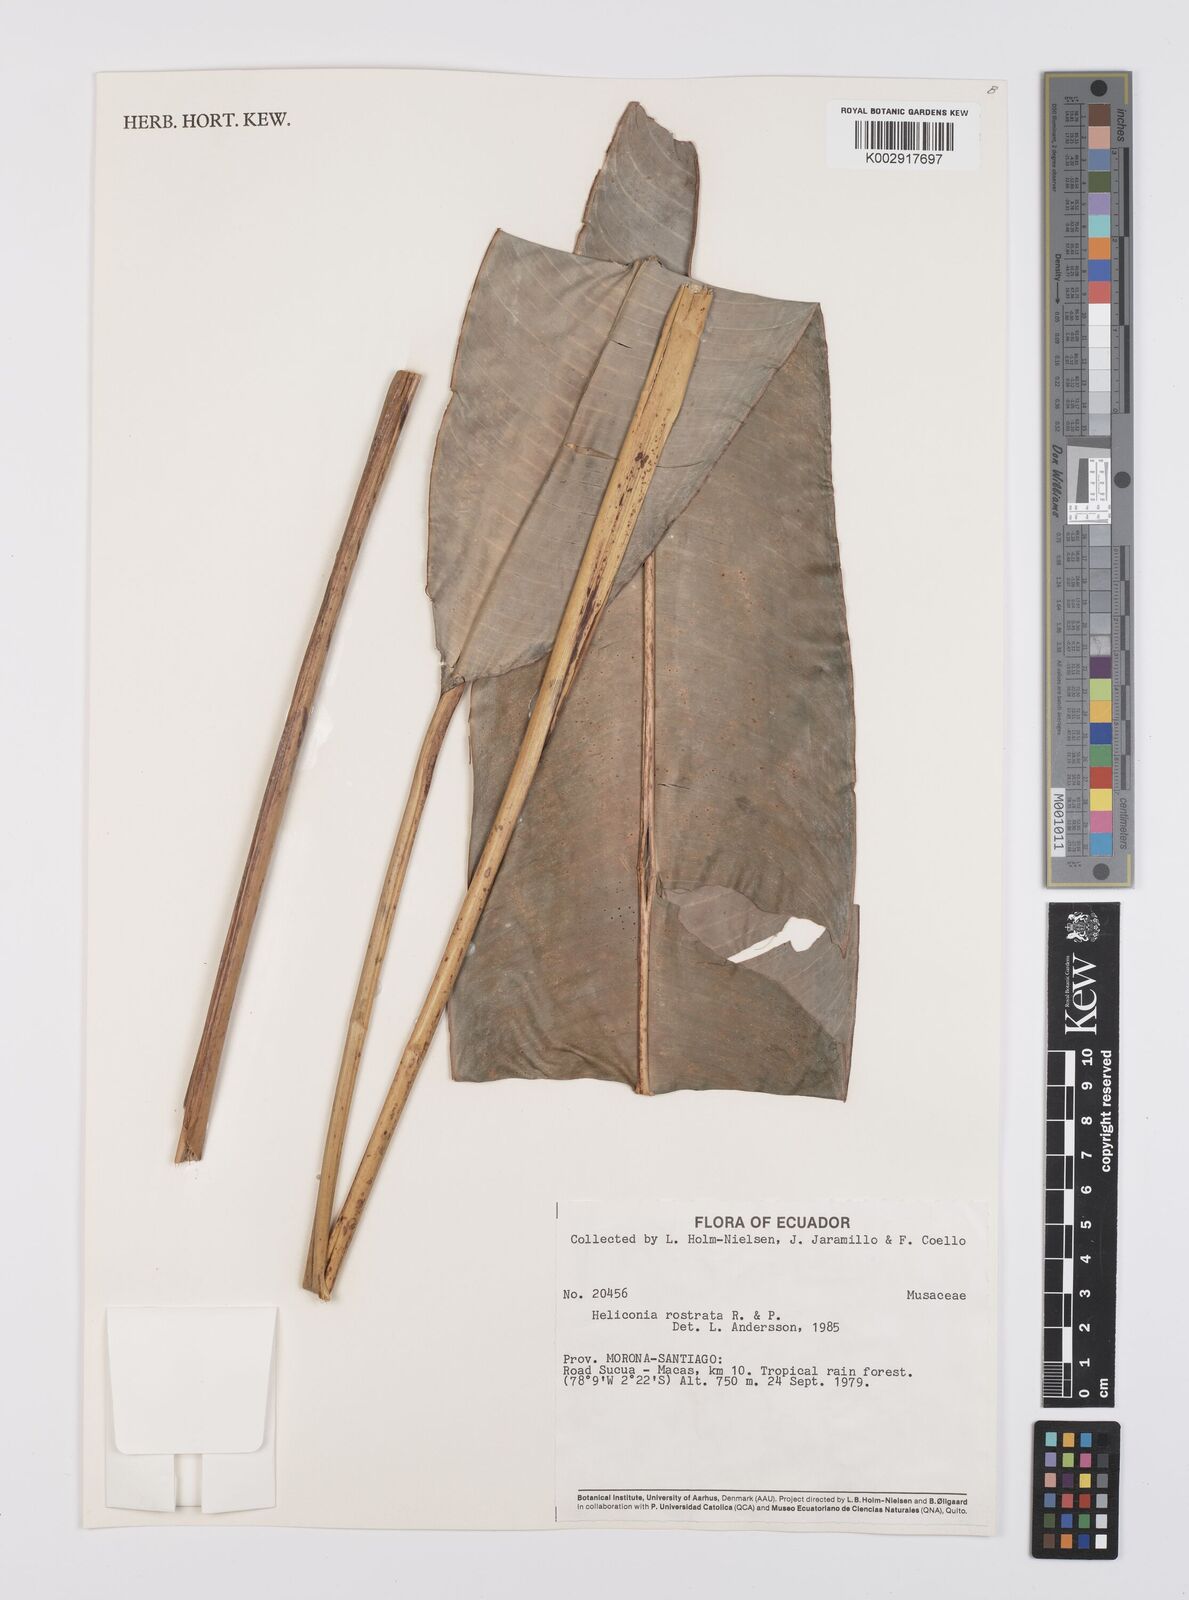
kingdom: Plantae
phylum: Tracheophyta
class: Liliopsida
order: Zingiberales
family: Heliconiaceae
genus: Heliconia
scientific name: Heliconia rostrata
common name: False bird of paradise
